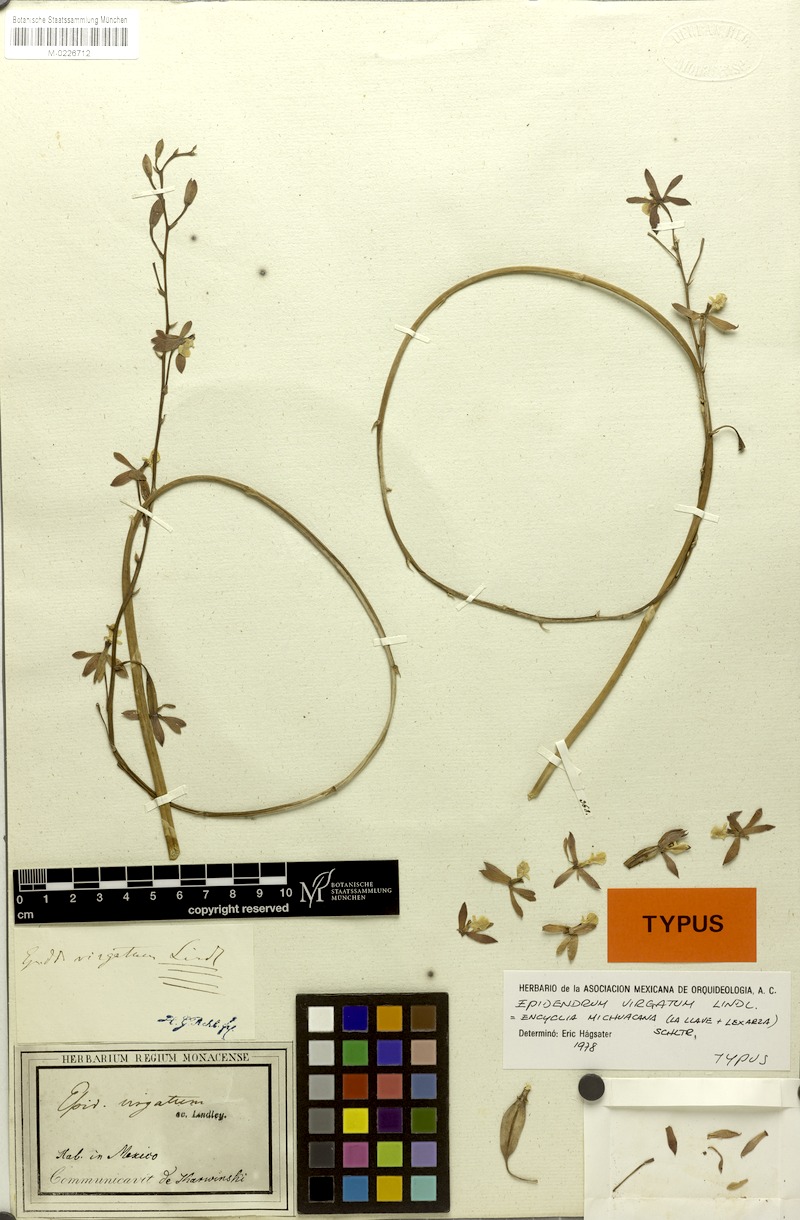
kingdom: Plantae
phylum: Tracheophyta
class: Liliopsida
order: Asparagales
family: Orchidaceae
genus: Prosthechea
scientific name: Prosthechea michuacana
